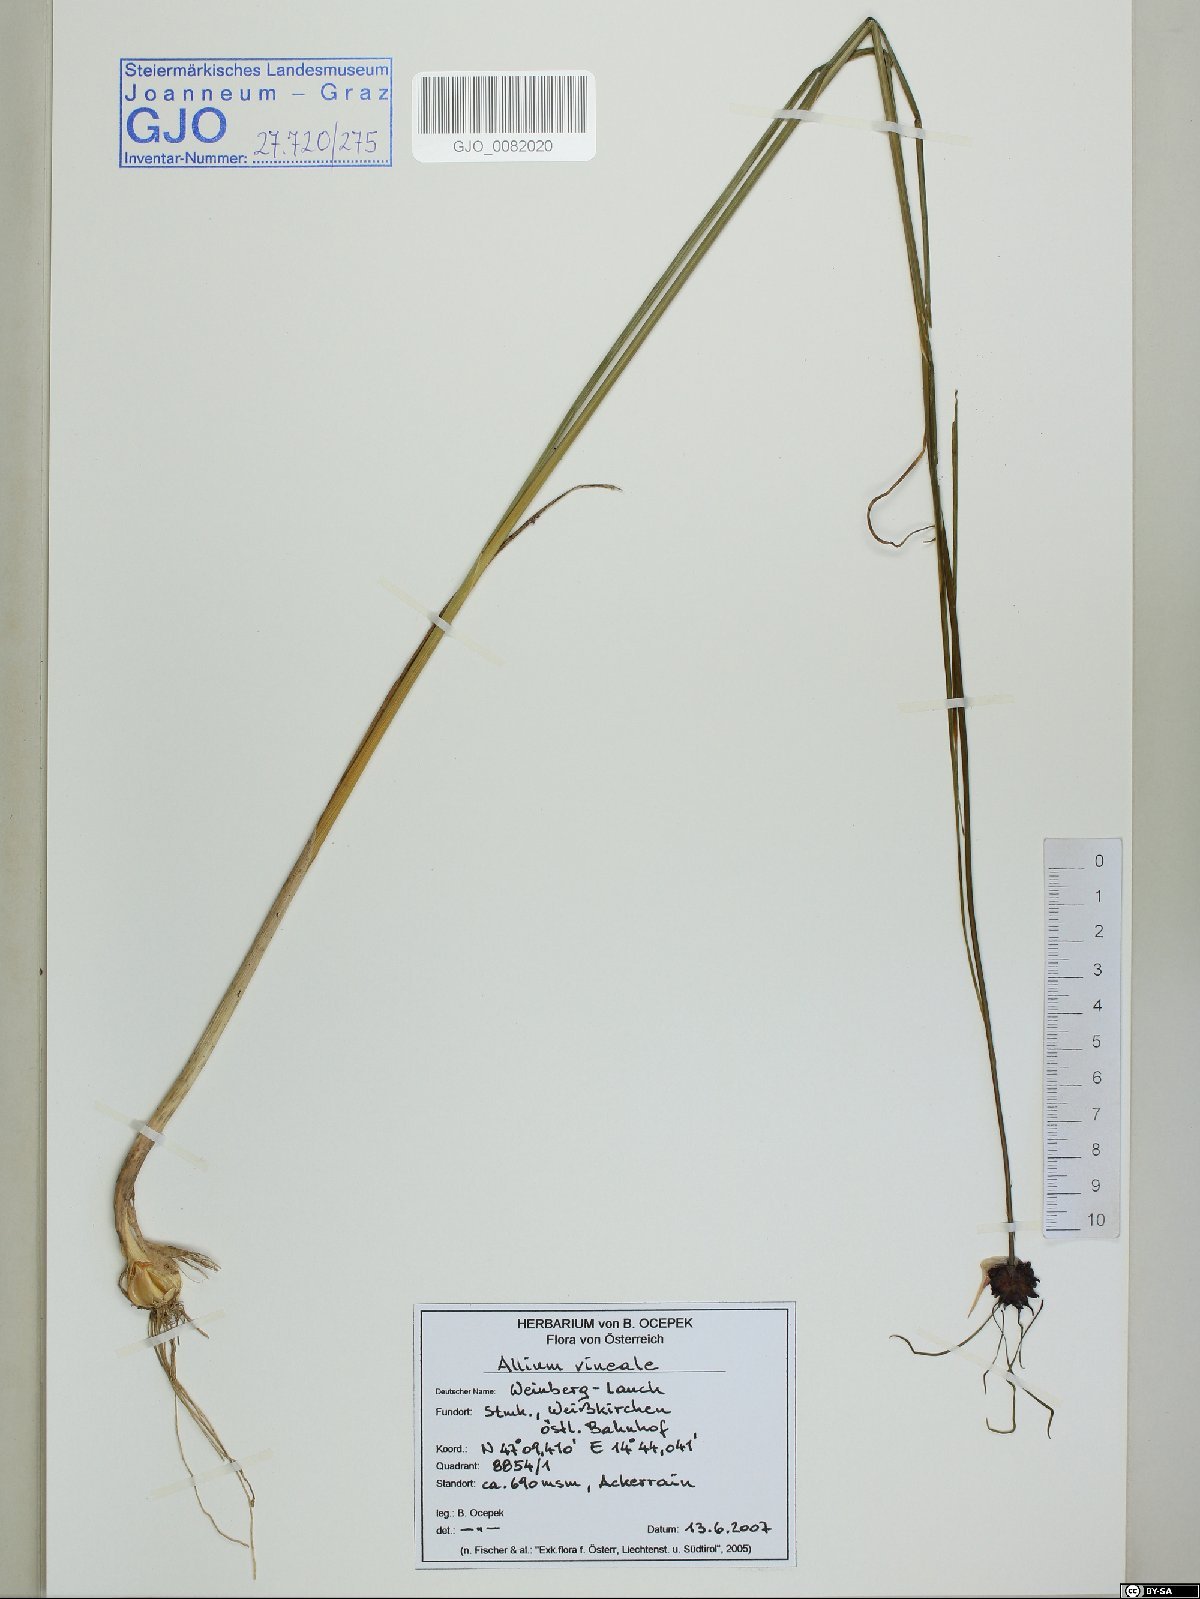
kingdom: Plantae
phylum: Tracheophyta
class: Liliopsida
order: Asparagales
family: Amaryllidaceae
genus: Allium
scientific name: Allium vineale
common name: Crow garlic
